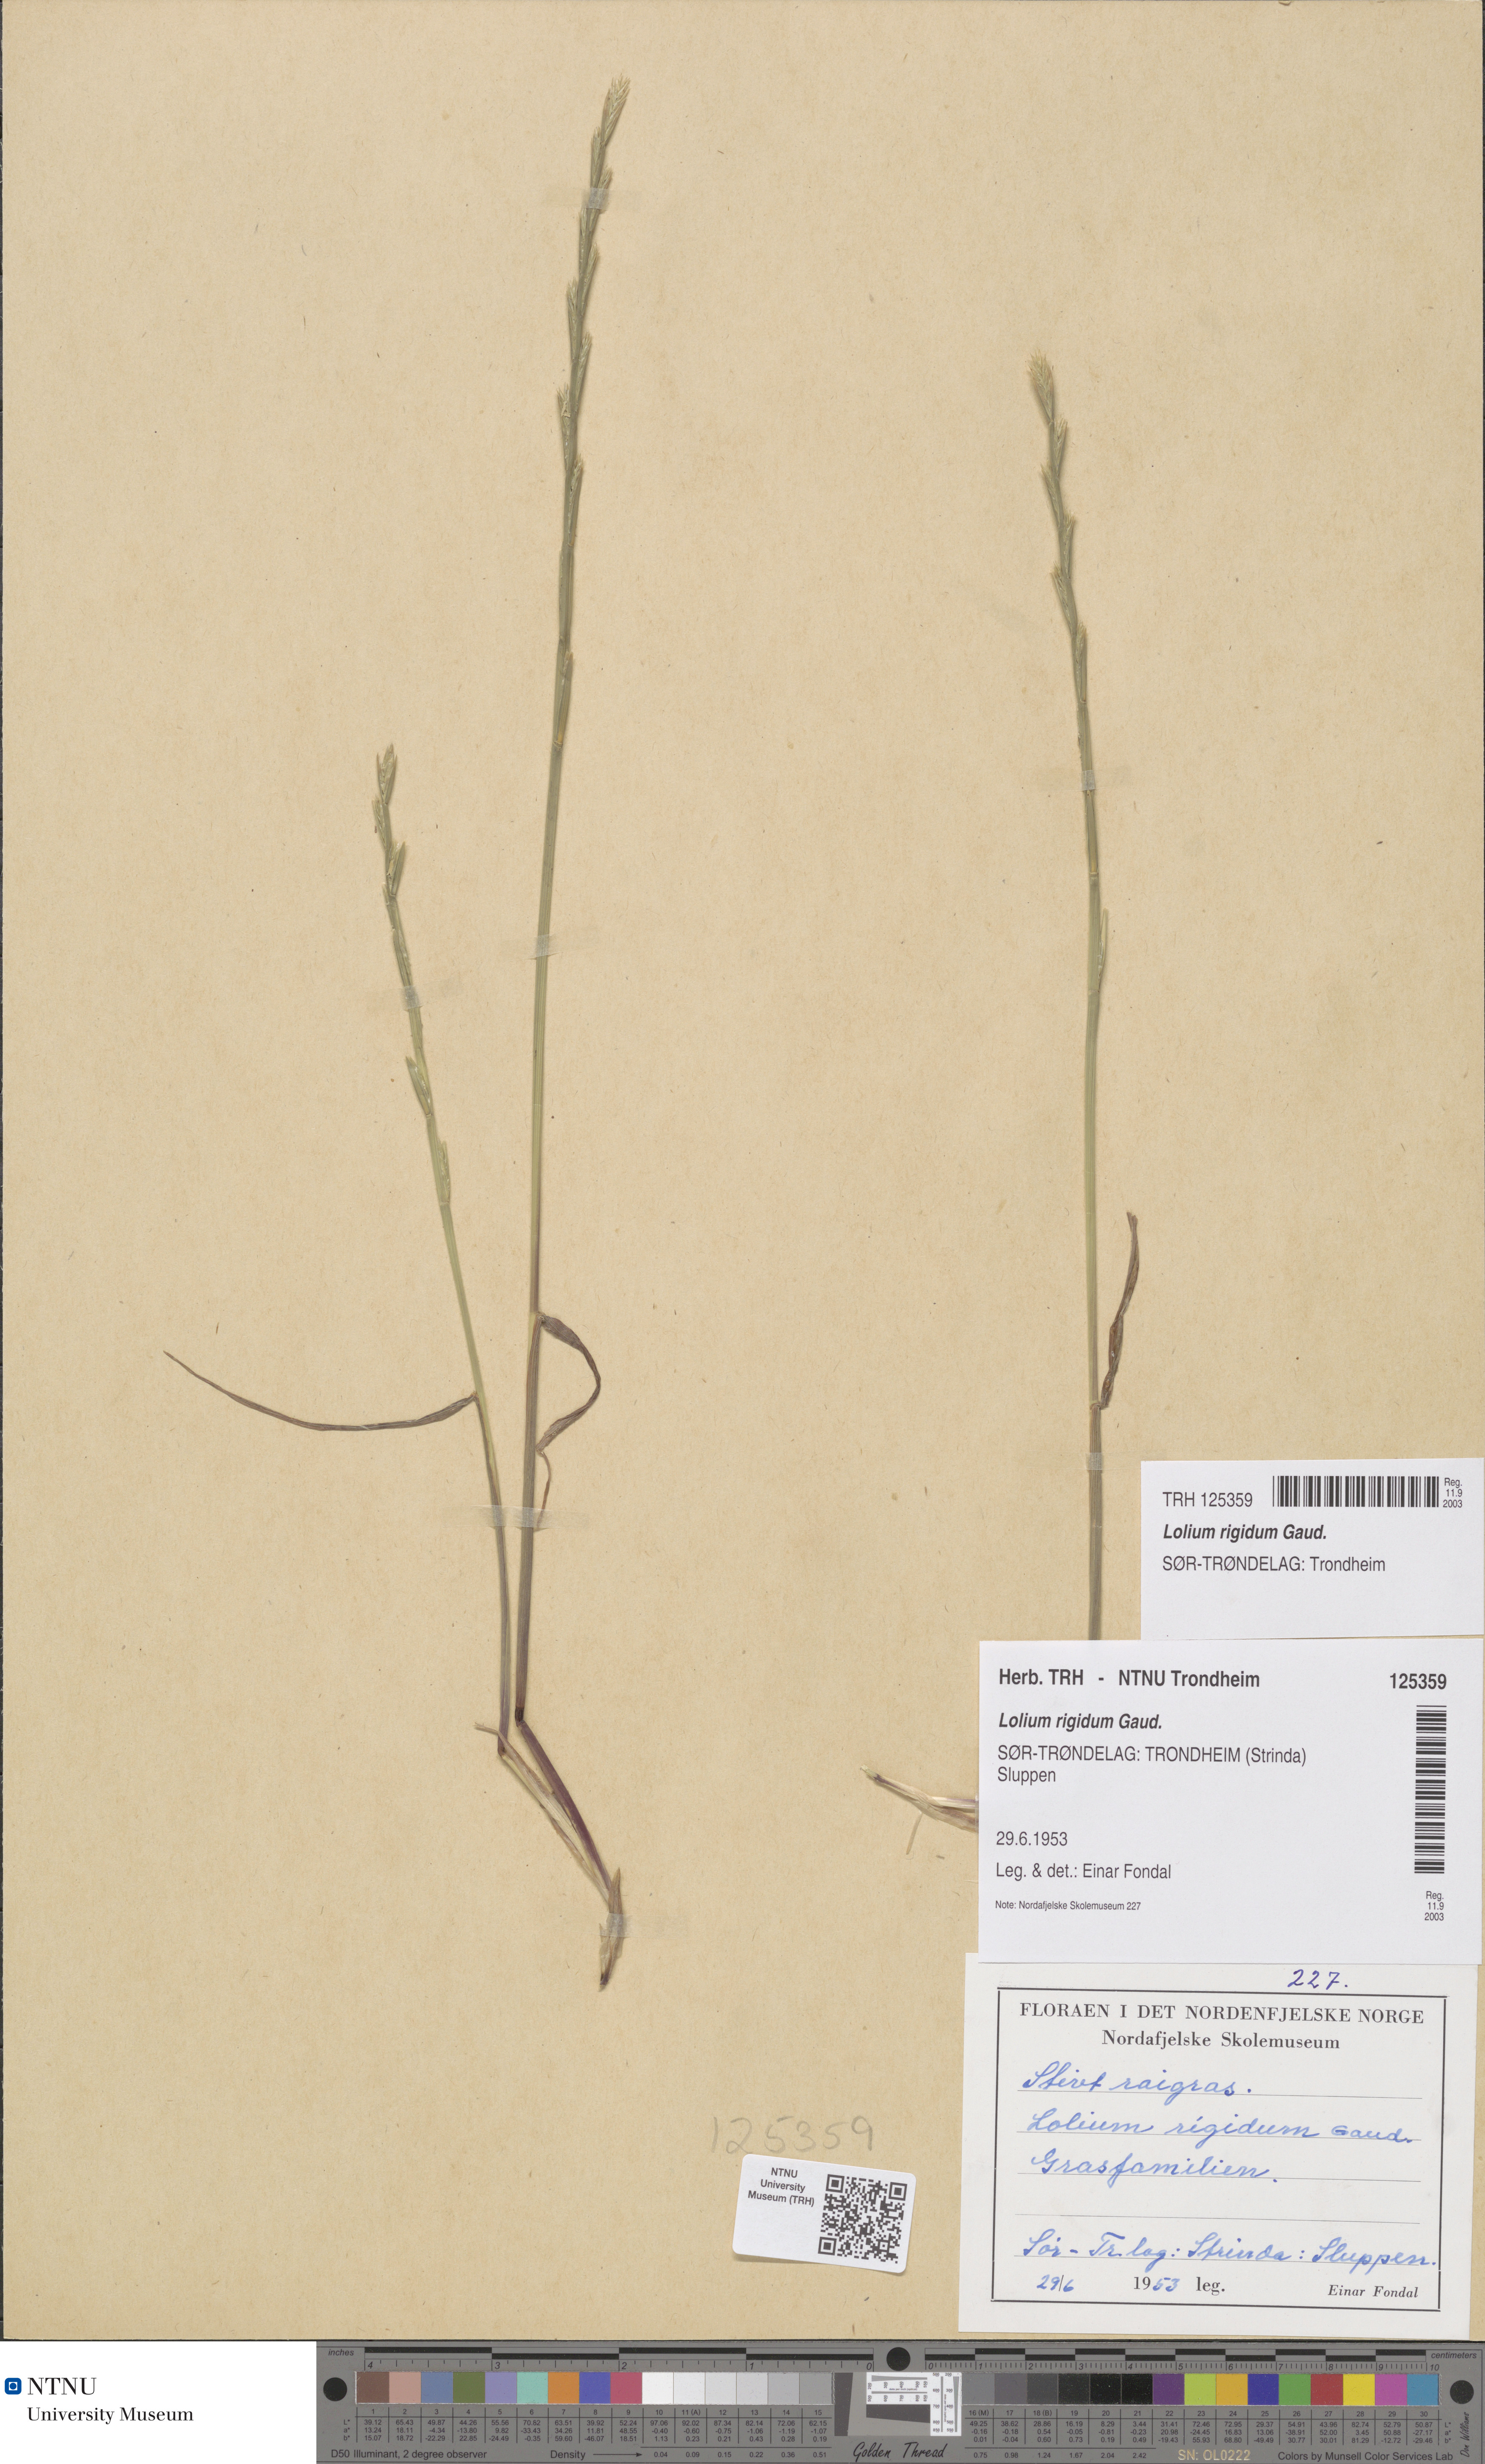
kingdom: Plantae
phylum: Tracheophyta
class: Liliopsida
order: Poales
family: Poaceae
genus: Lolium
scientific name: Lolium rigidum
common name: Wimmera ryegrass
